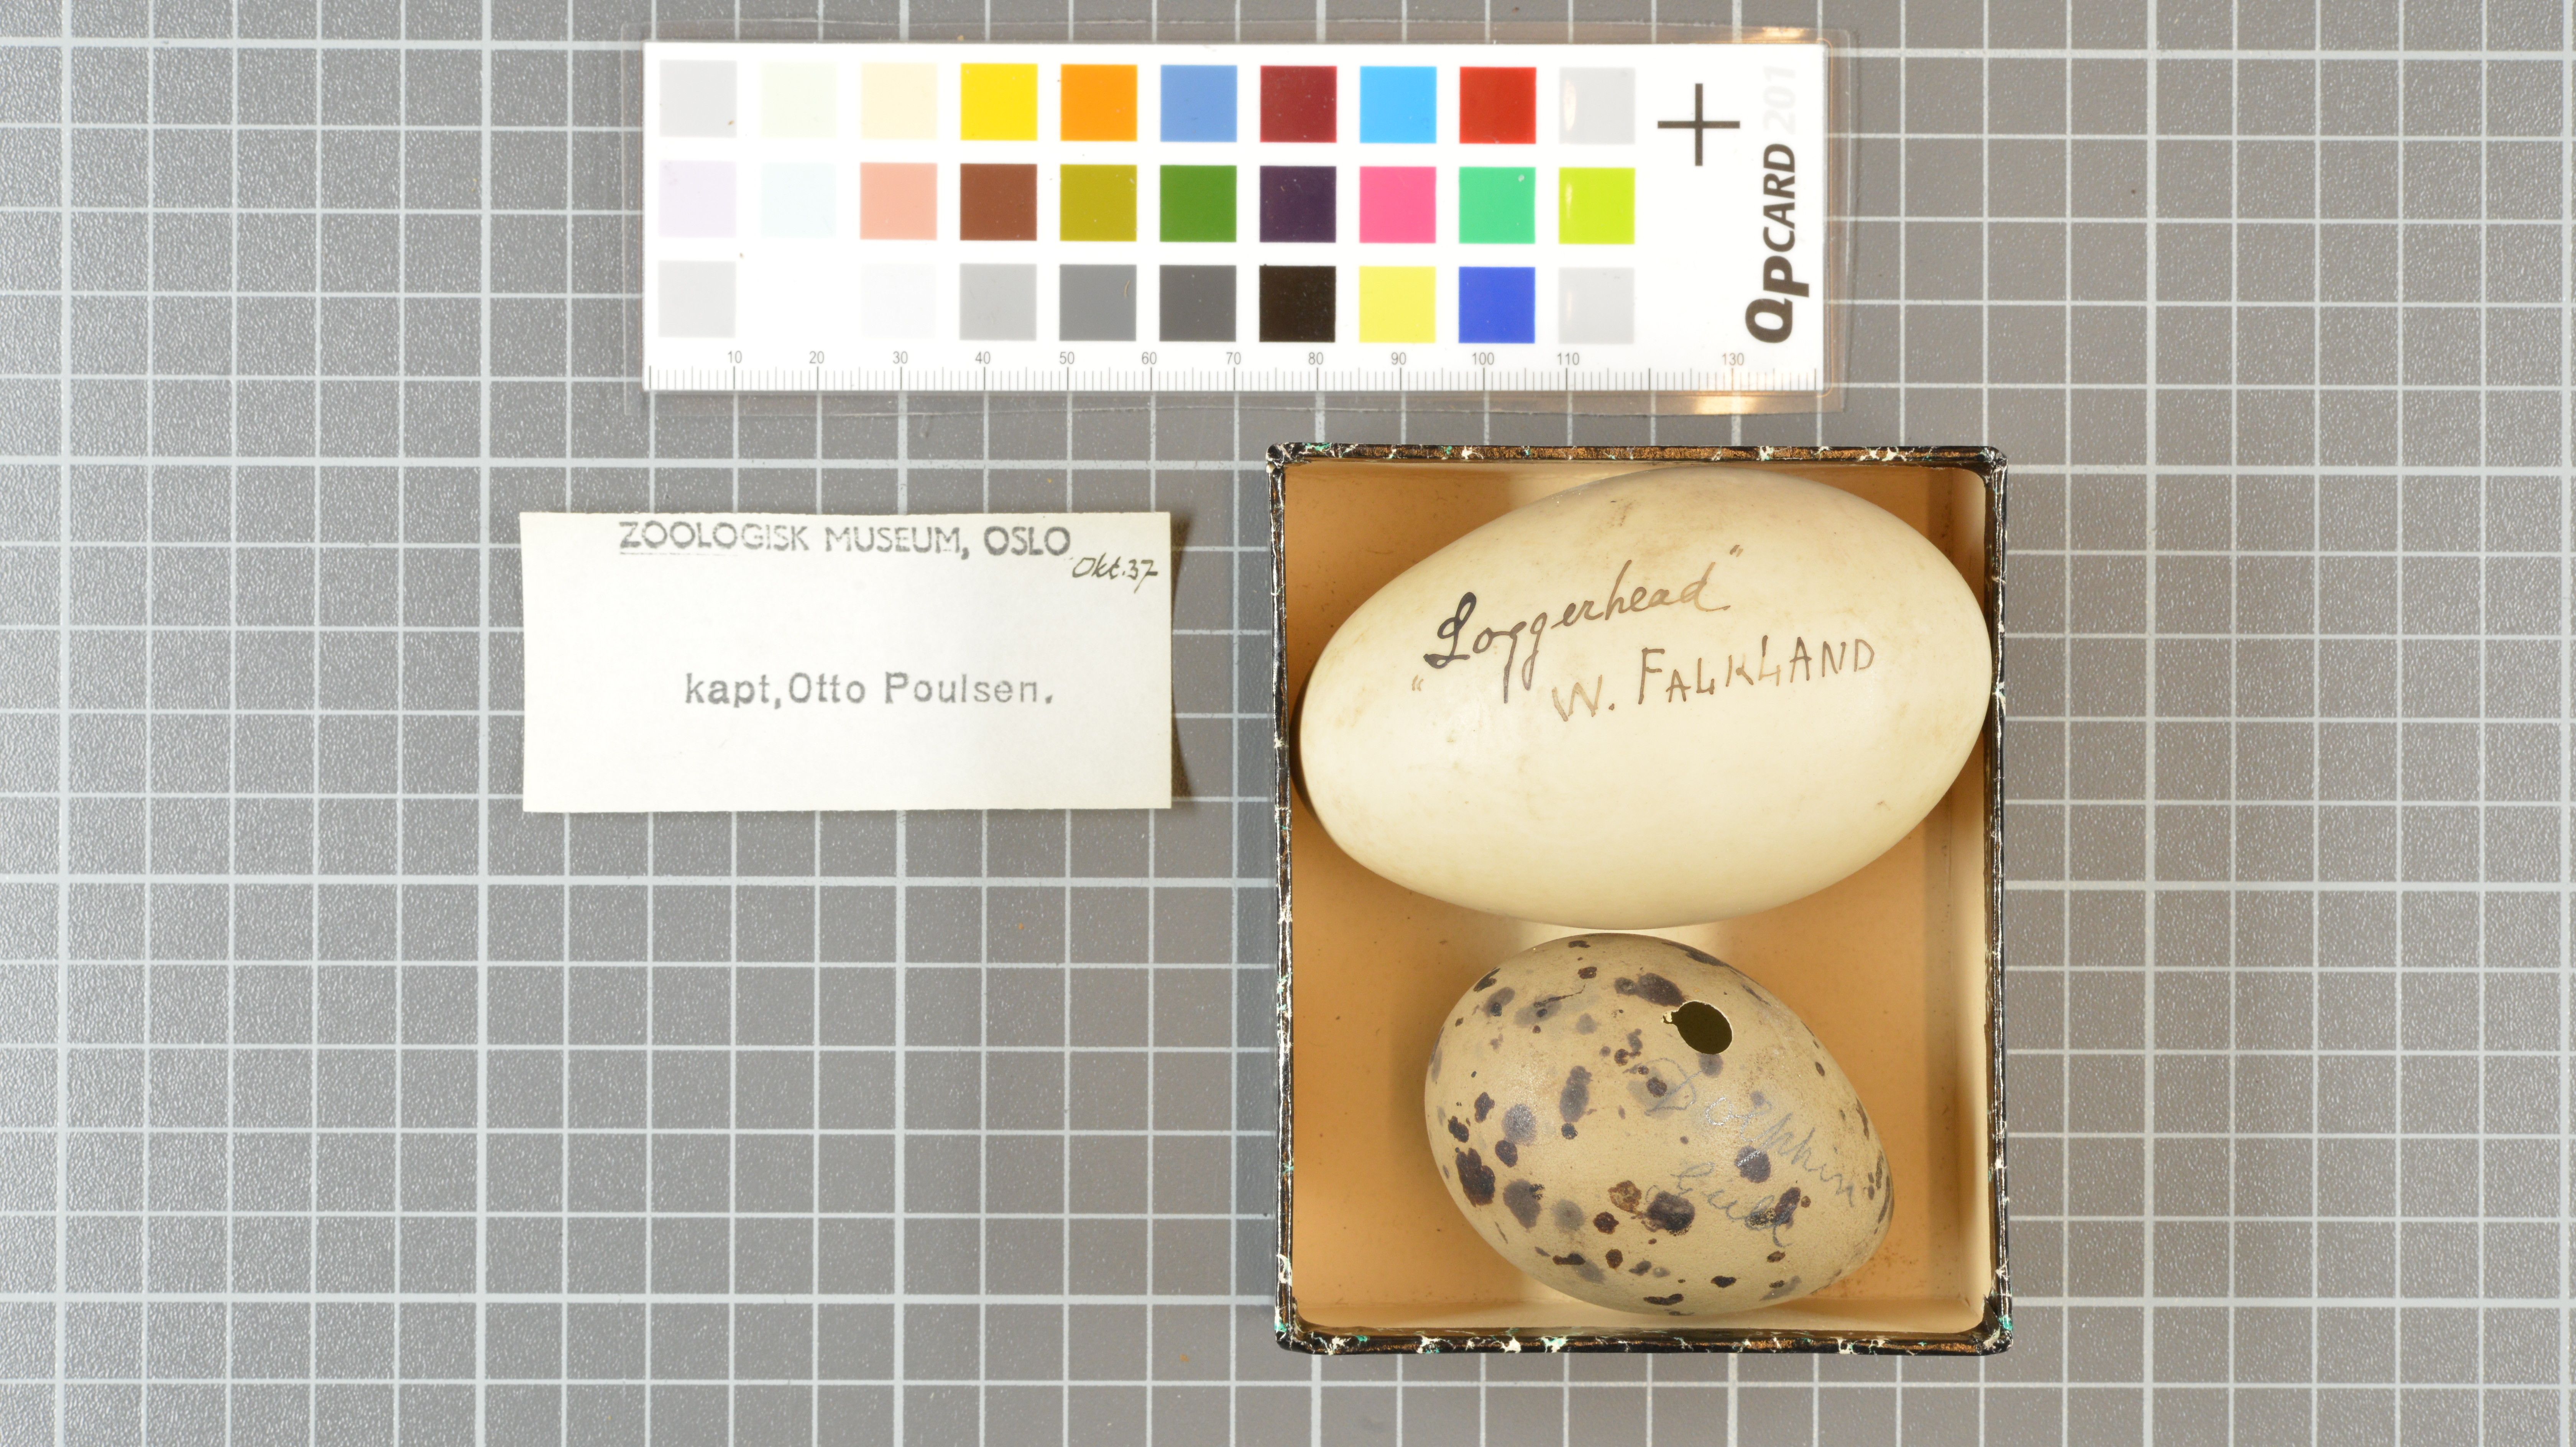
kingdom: Animalia
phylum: Chordata
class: Aves
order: Charadriiformes
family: Laridae
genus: Leucophaeus
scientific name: Leucophaeus scoresbii
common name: Dolphin gull
